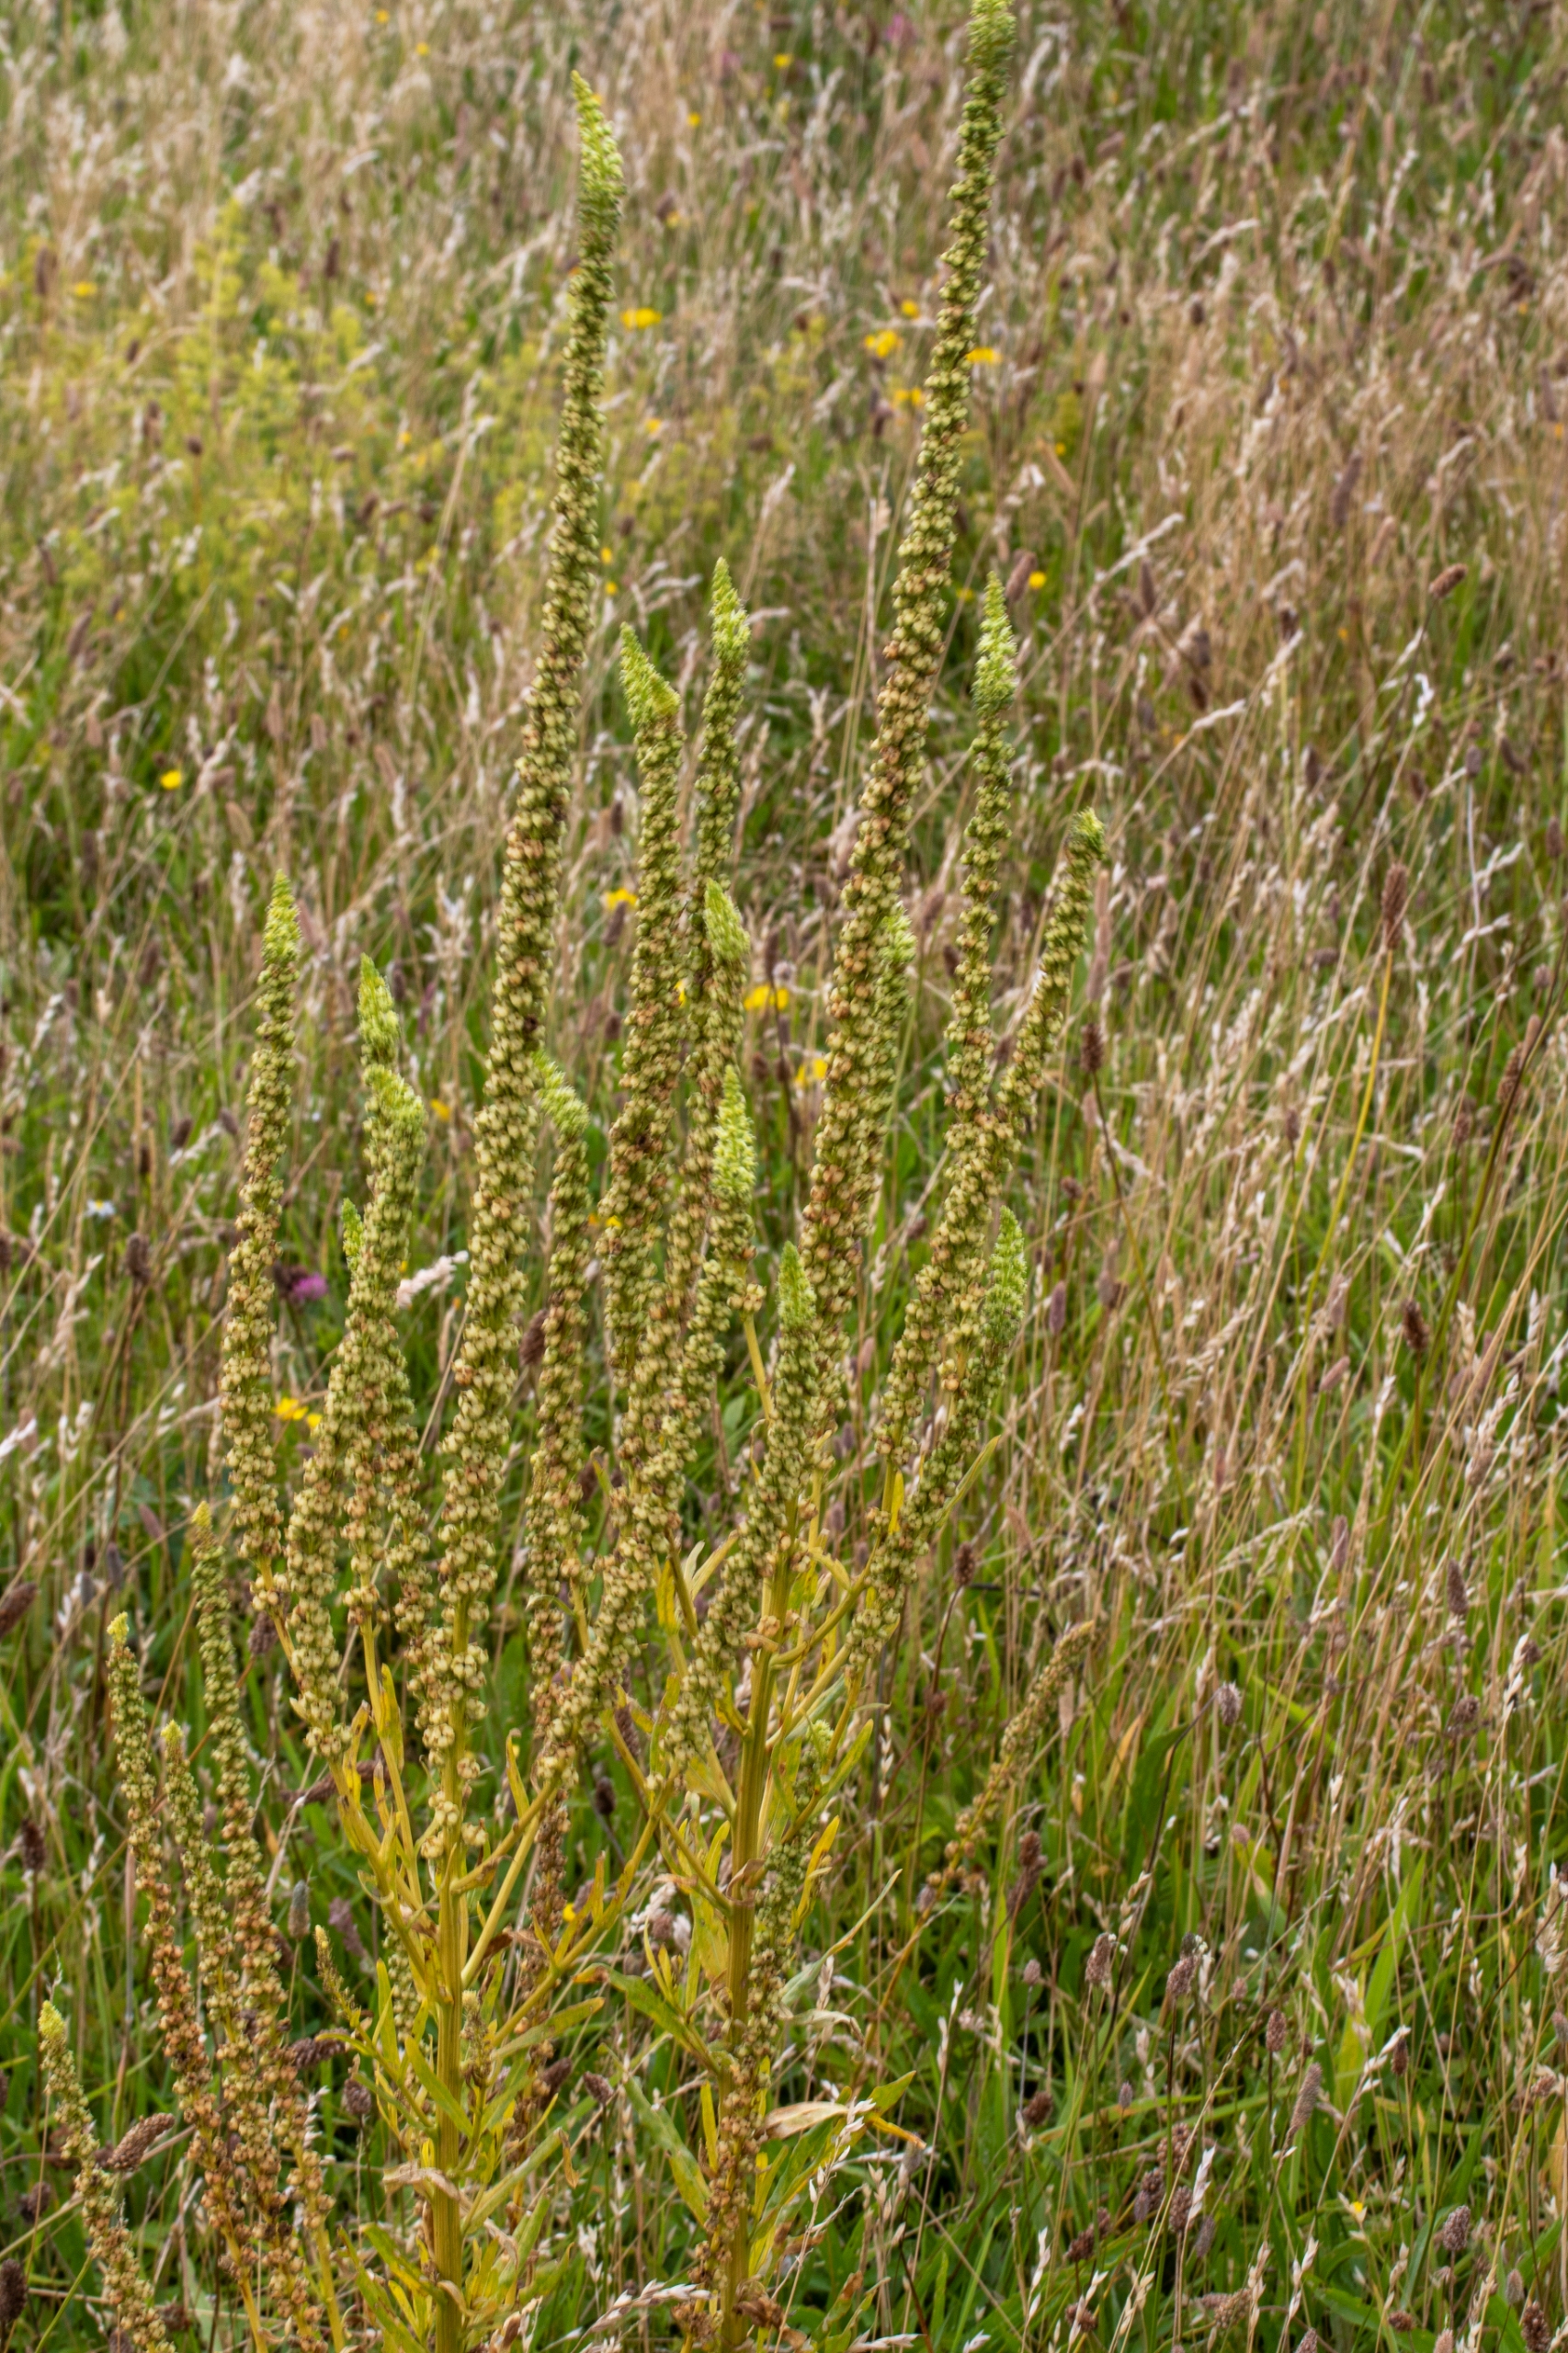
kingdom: Plantae
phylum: Tracheophyta
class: Magnoliopsida
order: Brassicales
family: Resedaceae
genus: Reseda
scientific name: Reseda luteola
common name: Farve-reseda
